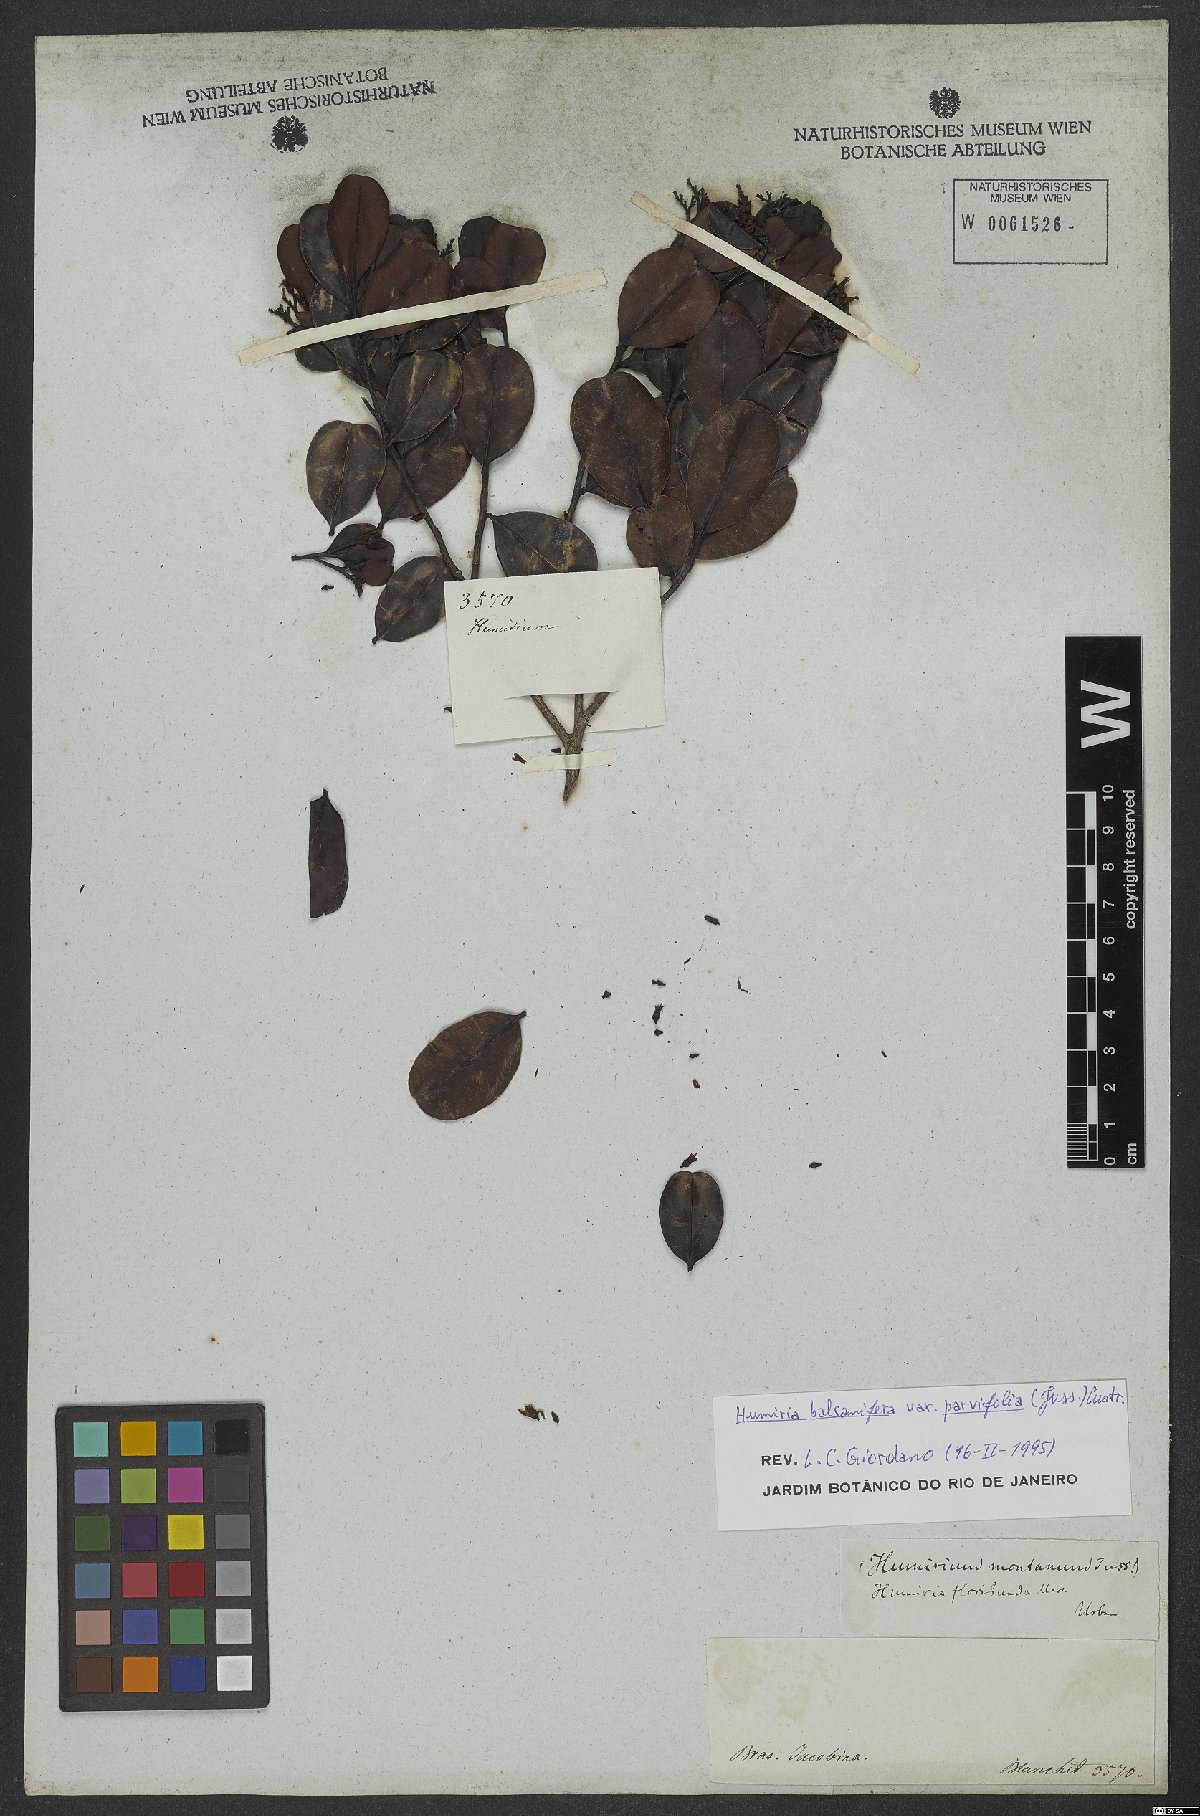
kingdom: Plantae
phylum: Tracheophyta
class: Magnoliopsida
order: Malpighiales
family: Humiriaceae
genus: Humiria
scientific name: Humiria parvifolia
